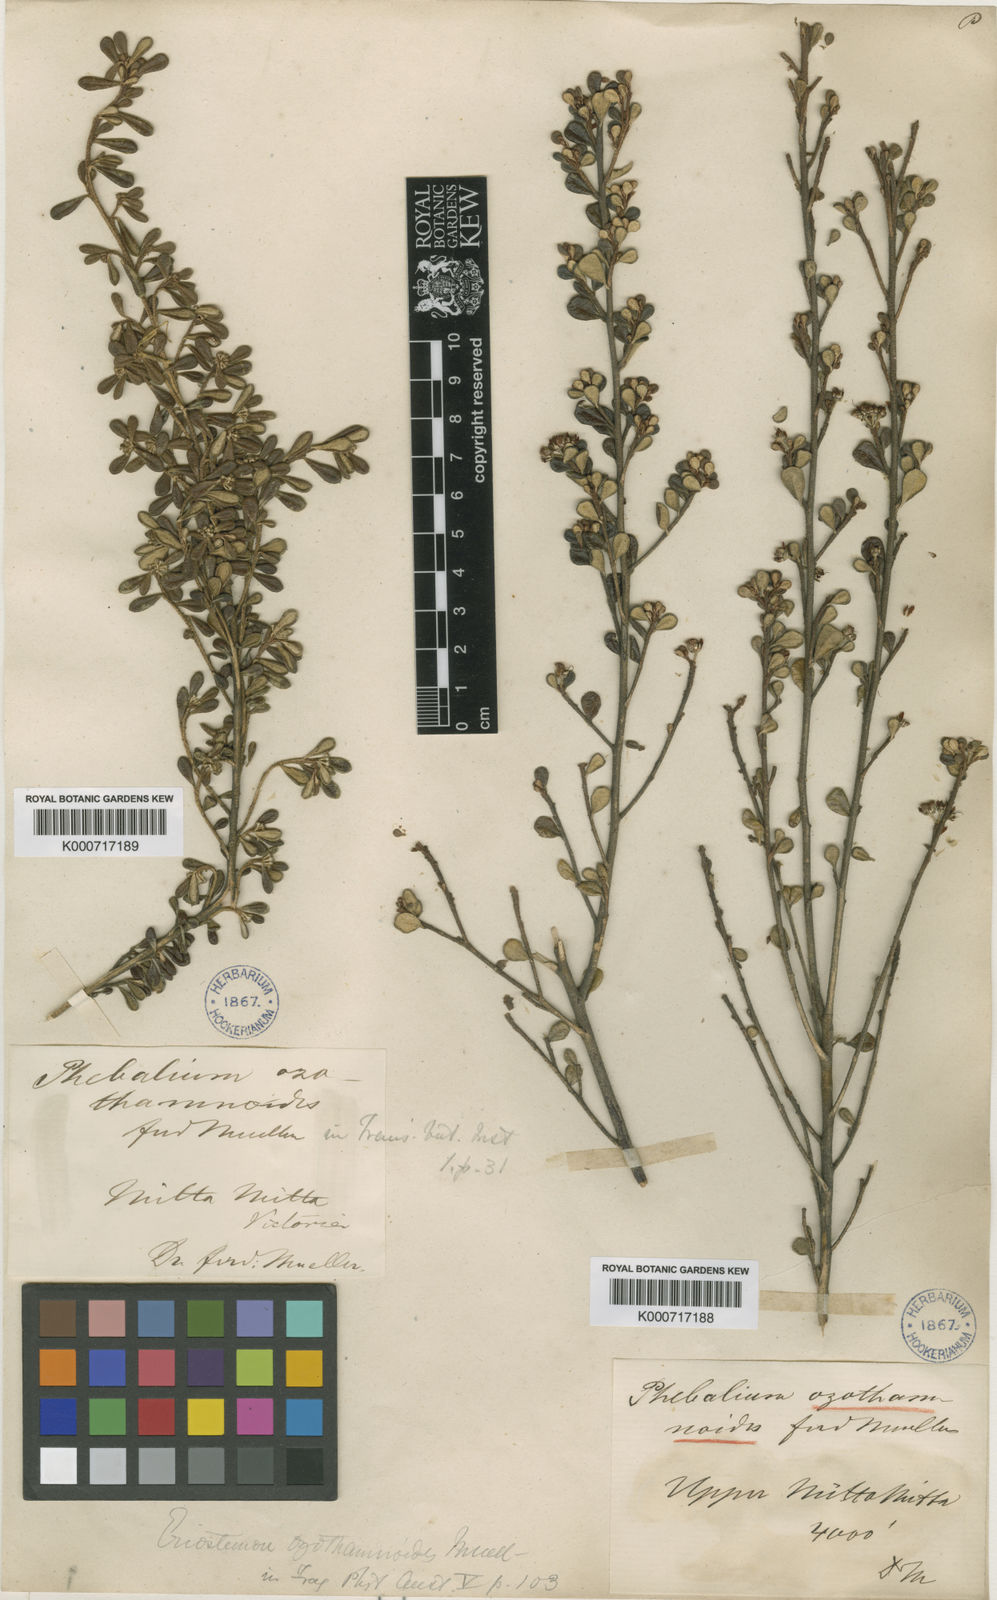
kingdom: Plantae
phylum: Tracheophyta
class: Magnoliopsida
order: Sapindales
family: Rutaceae
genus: Phebalium
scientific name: Phebalium squamulosum
